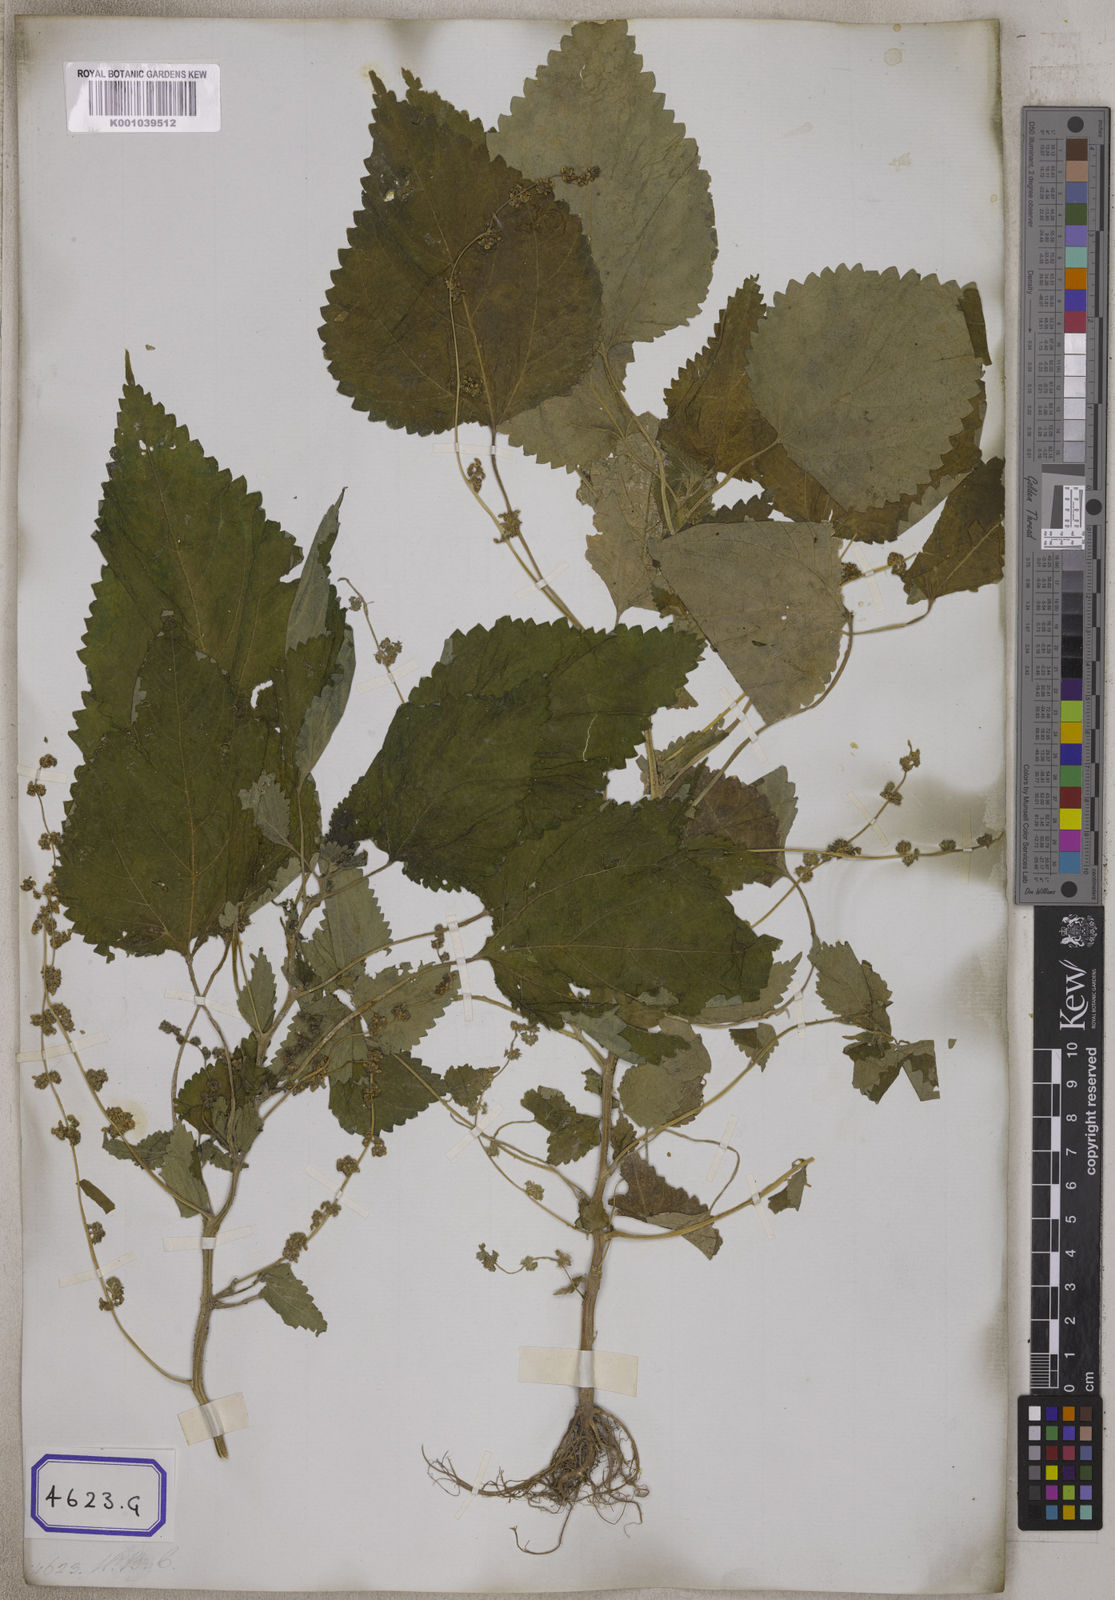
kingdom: Plantae
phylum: Tracheophyta
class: Magnoliopsida
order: Rosales
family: Urticaceae
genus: Laportea
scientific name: Laportea interrupta
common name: Hawaiian wood-nettle
